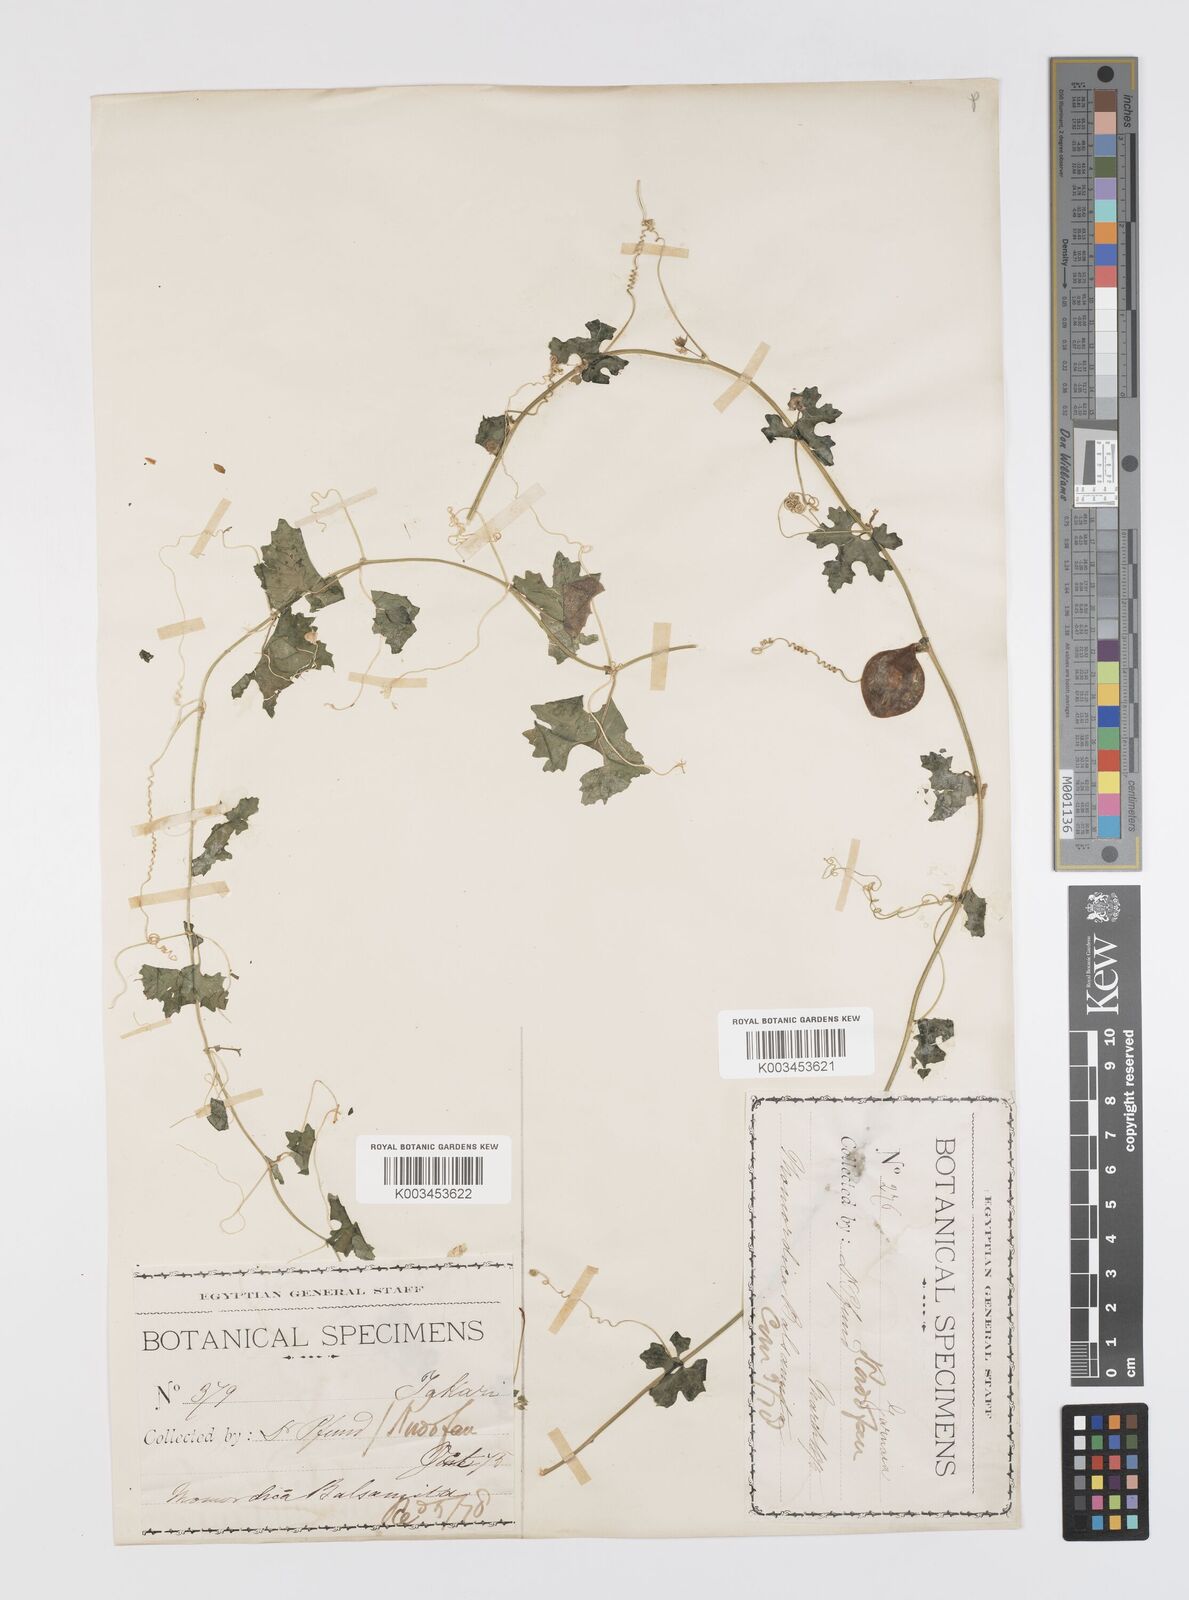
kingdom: Plantae
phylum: Tracheophyta
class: Magnoliopsida
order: Cucurbitales
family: Cucurbitaceae
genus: Momordica
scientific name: Momordica balsamina
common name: Southern balsampear
